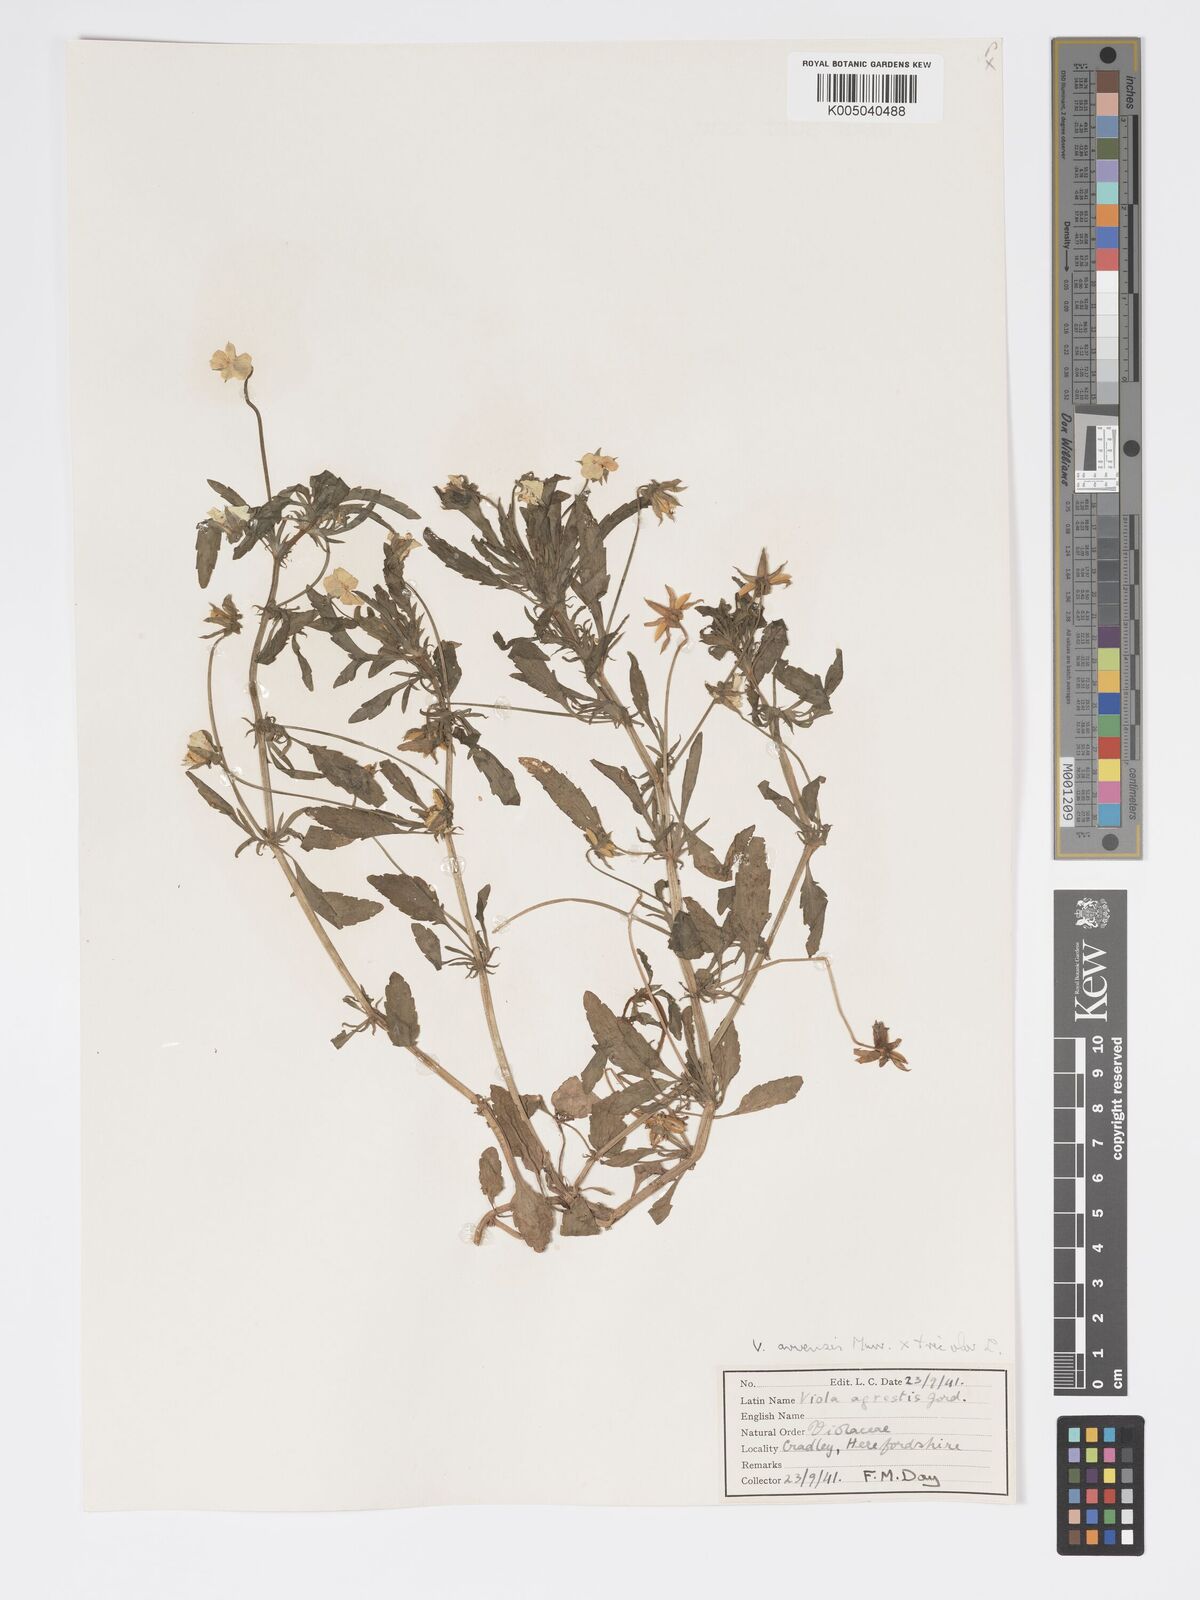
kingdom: Plantae
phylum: Tracheophyta
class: Magnoliopsida
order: Malpighiales
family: Violaceae
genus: Viola
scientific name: Viola arvensis
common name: Field pansy
